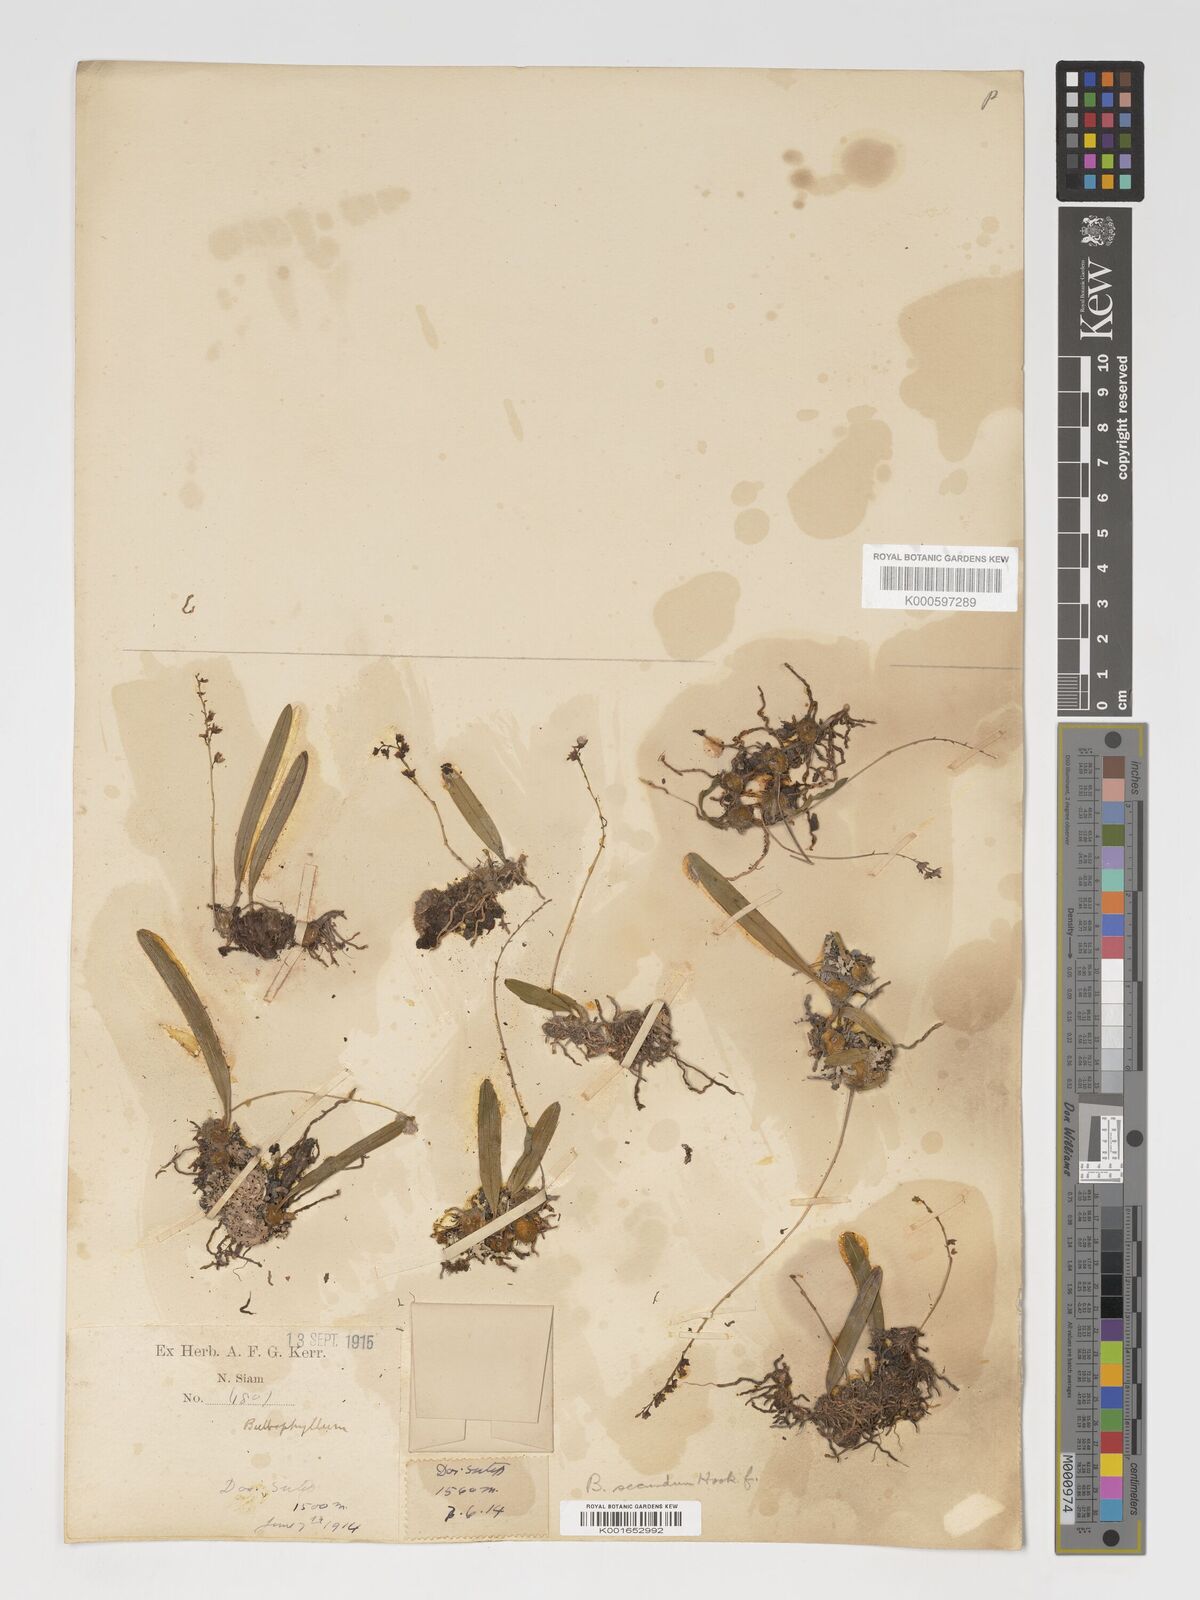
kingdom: Plantae
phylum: Tracheophyta
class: Liliopsida
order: Asparagales
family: Orchidaceae
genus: Bulbophyllum
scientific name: Bulbophyllum secundum
